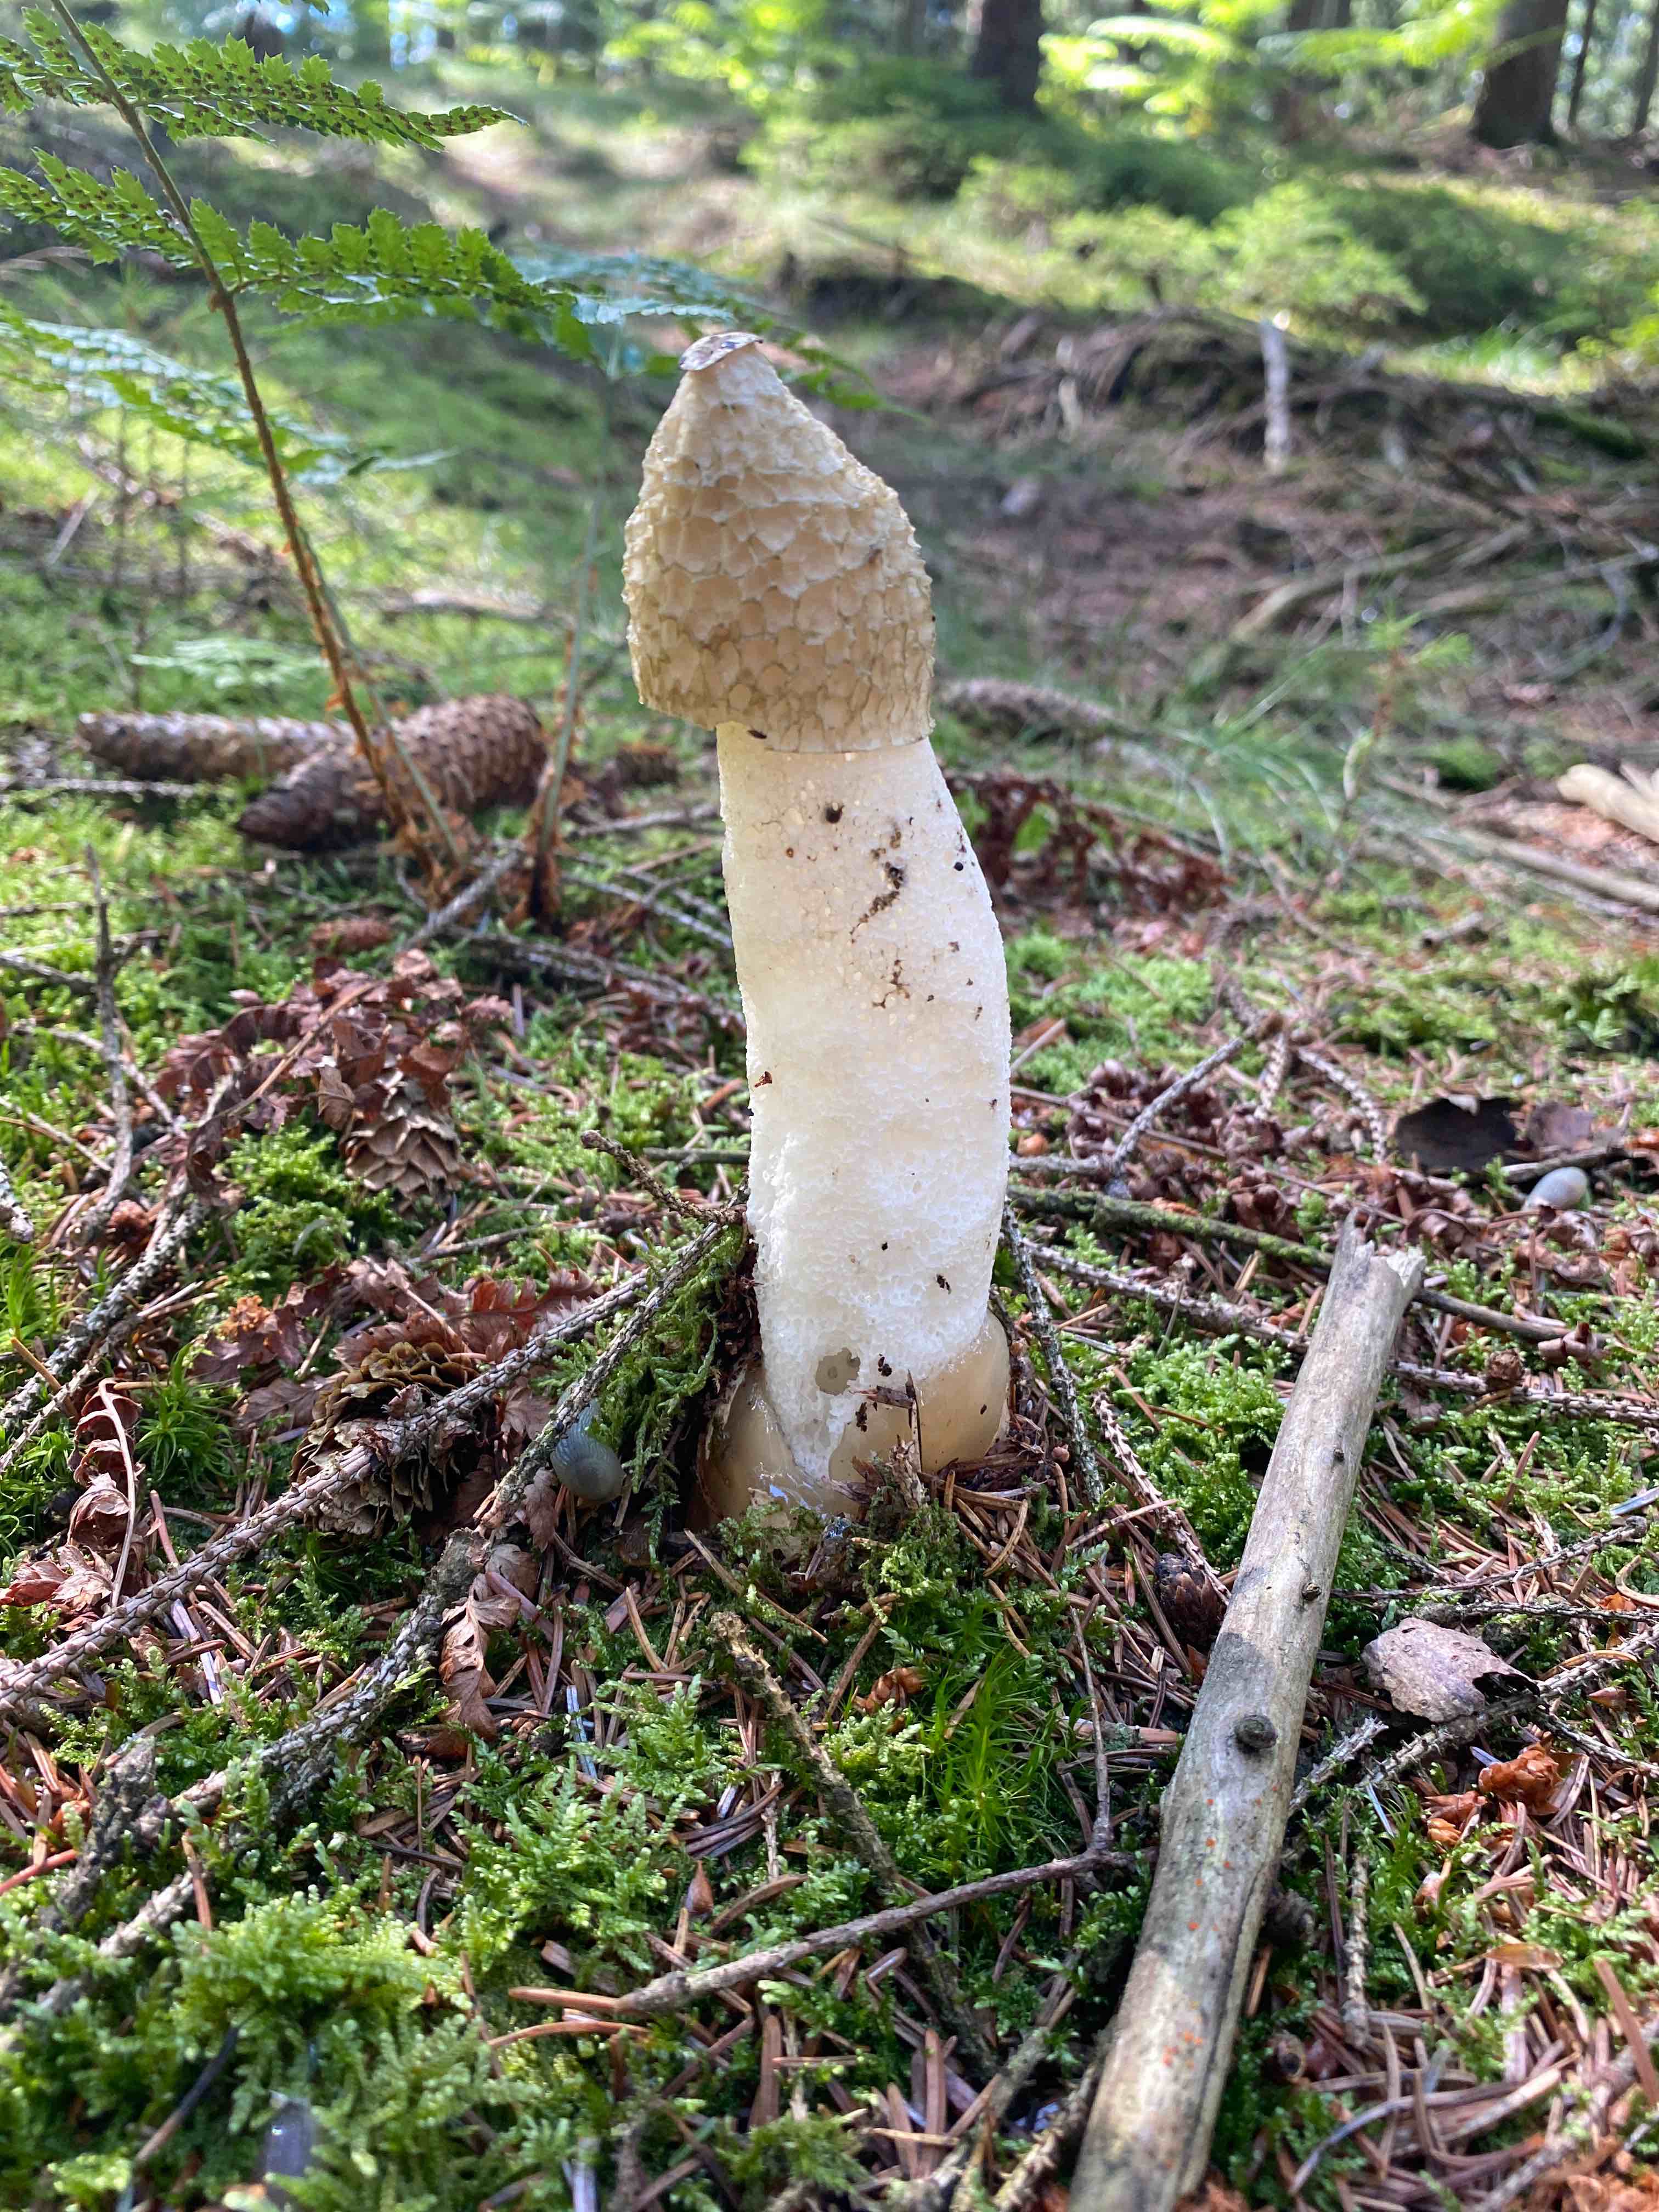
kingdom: Fungi
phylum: Basidiomycota
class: Agaricomycetes
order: Phallales
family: Phallaceae
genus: Phallus
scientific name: Phallus impudicus
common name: almindelig stinksvamp
